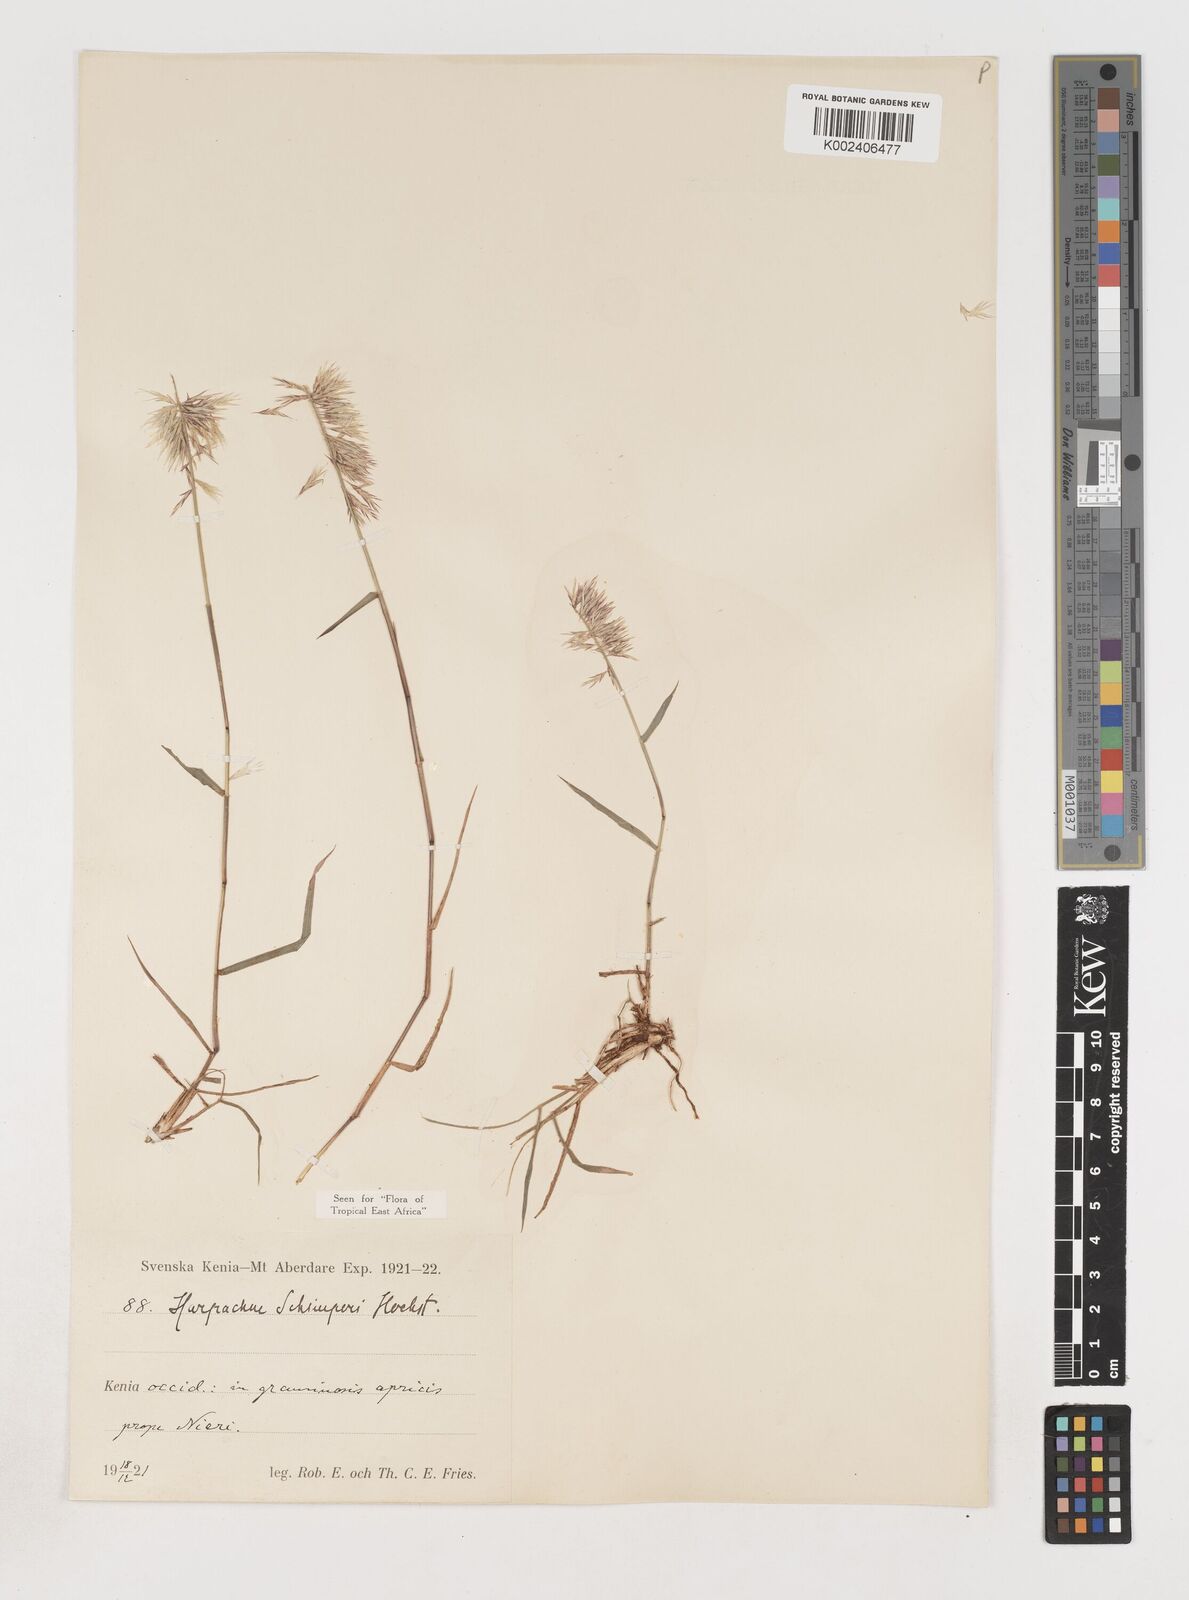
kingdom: Plantae
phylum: Tracheophyta
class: Liliopsida
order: Poales
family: Poaceae
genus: Harpachne
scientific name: Harpachne schimperi
